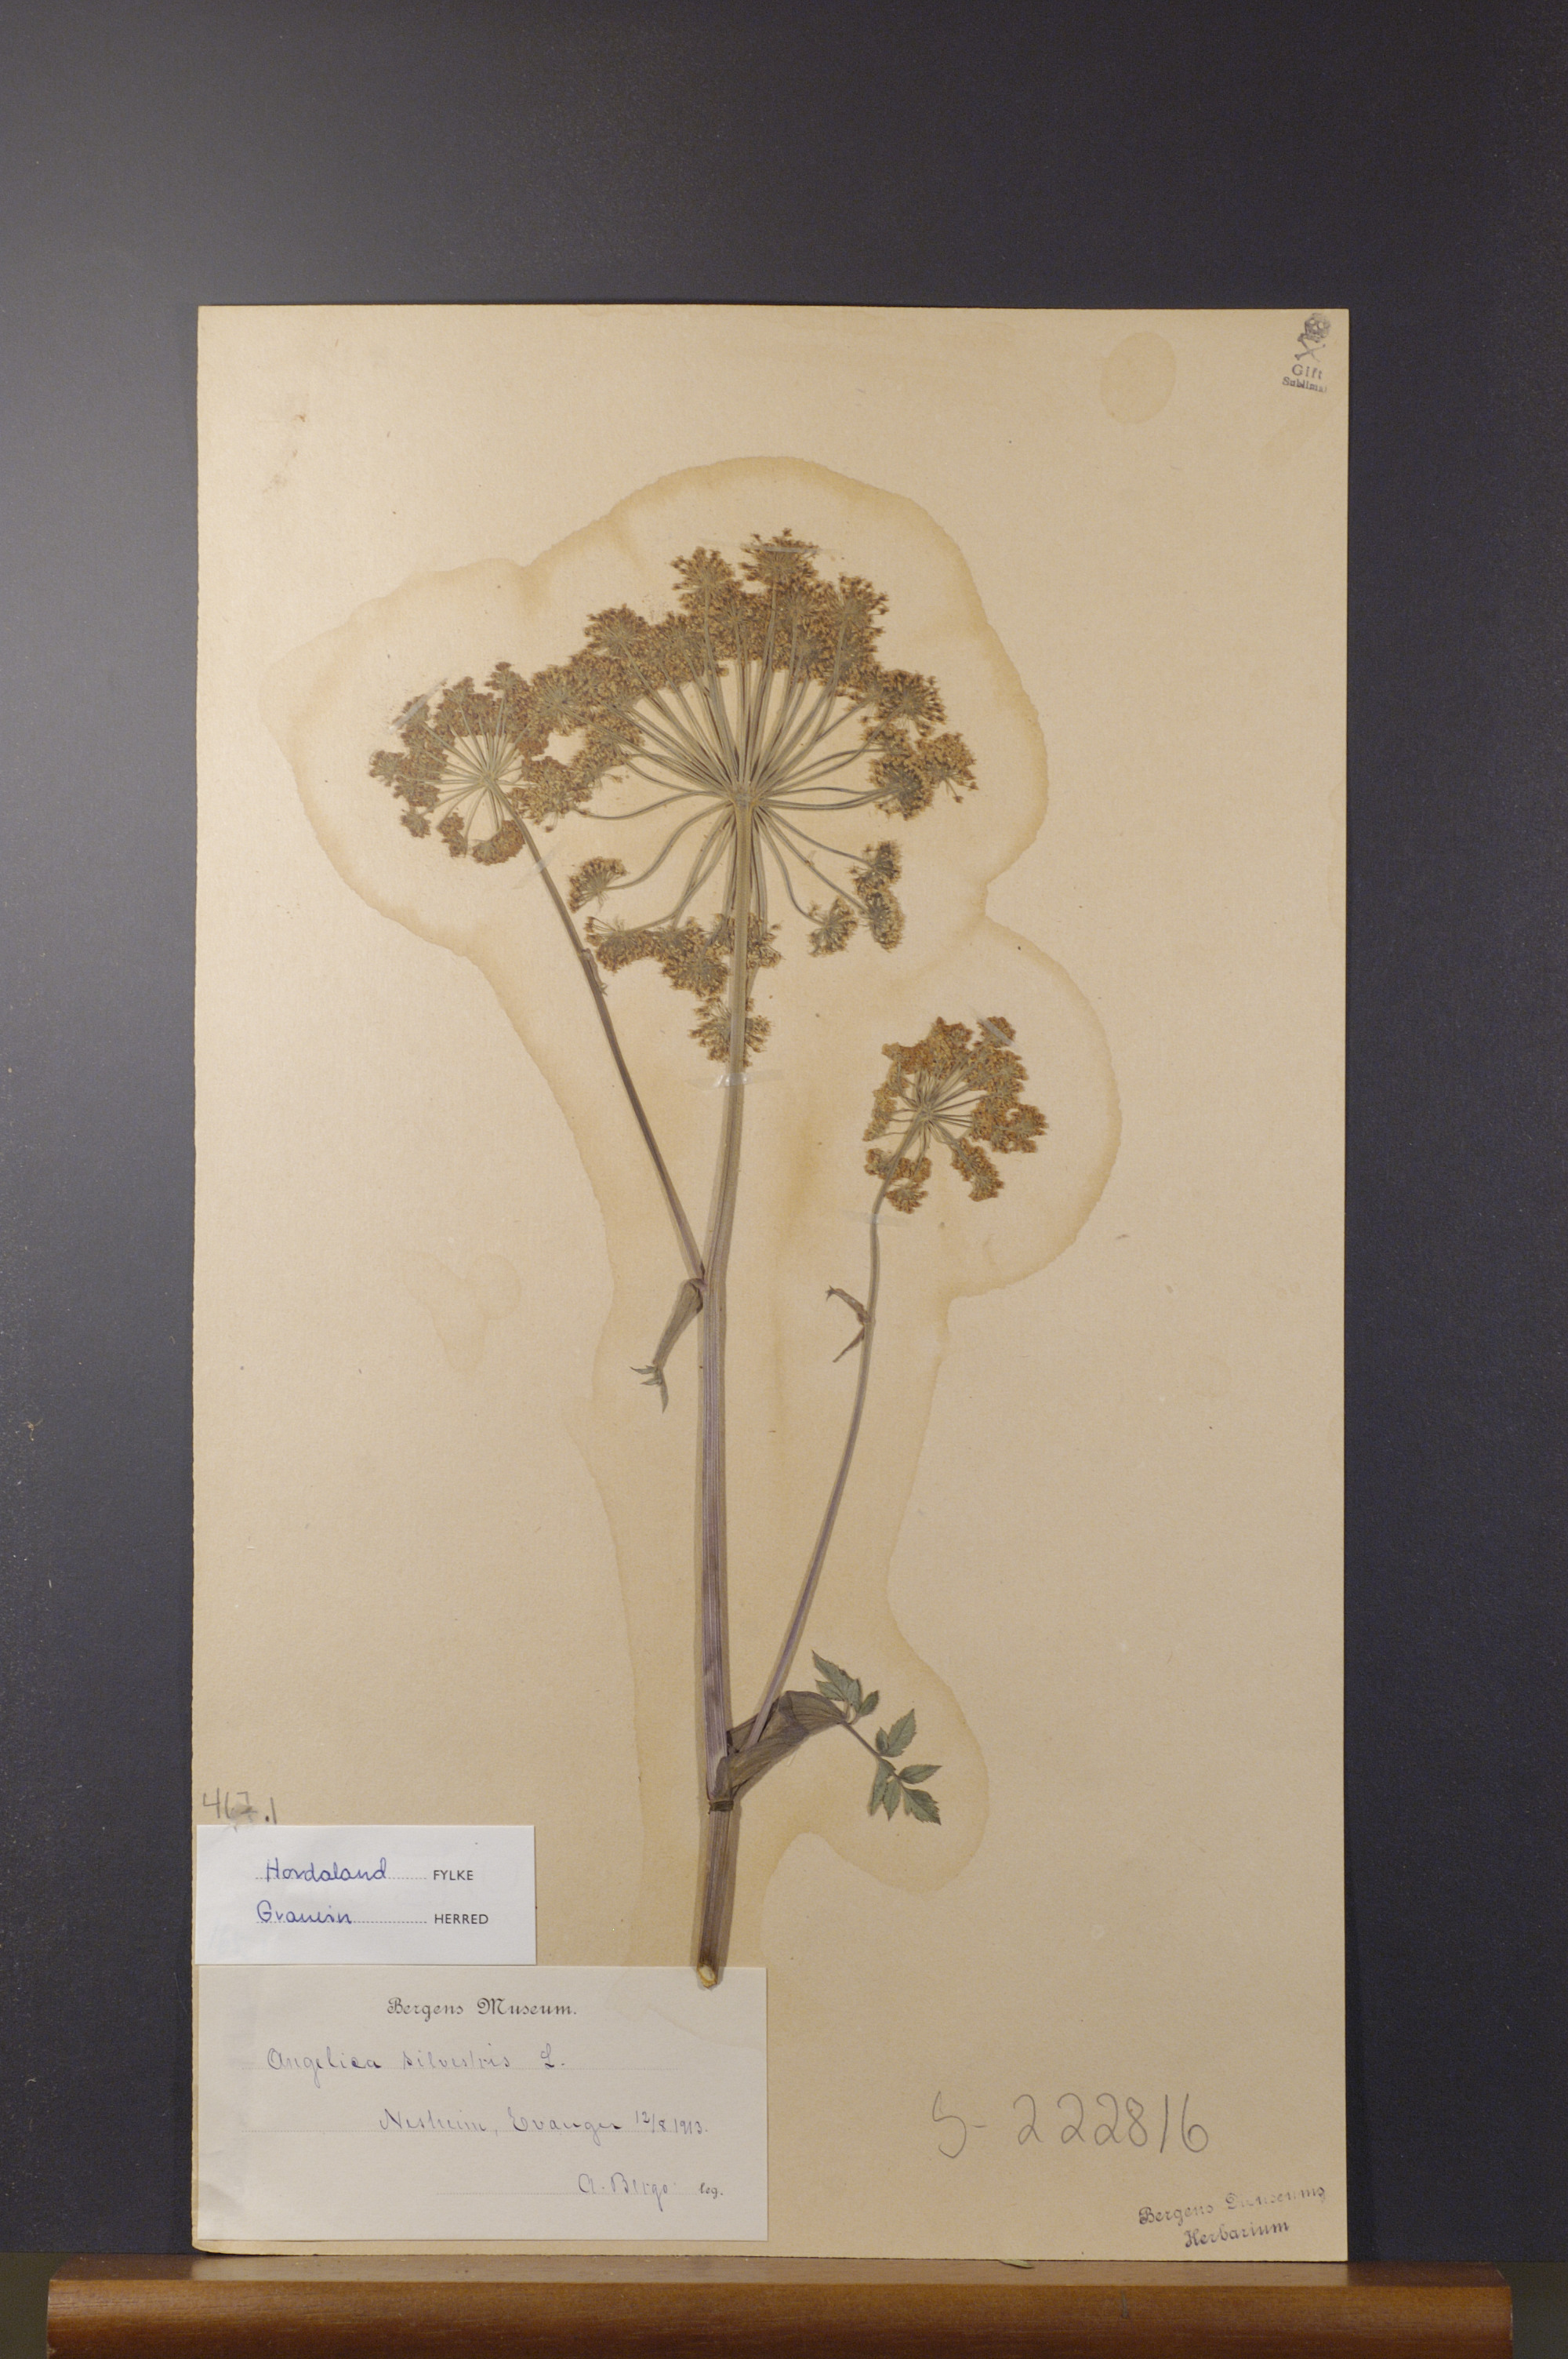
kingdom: Plantae
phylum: Tracheophyta
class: Magnoliopsida
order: Apiales
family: Apiaceae
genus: Angelica
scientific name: Angelica sylvestris
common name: Wild angelica
